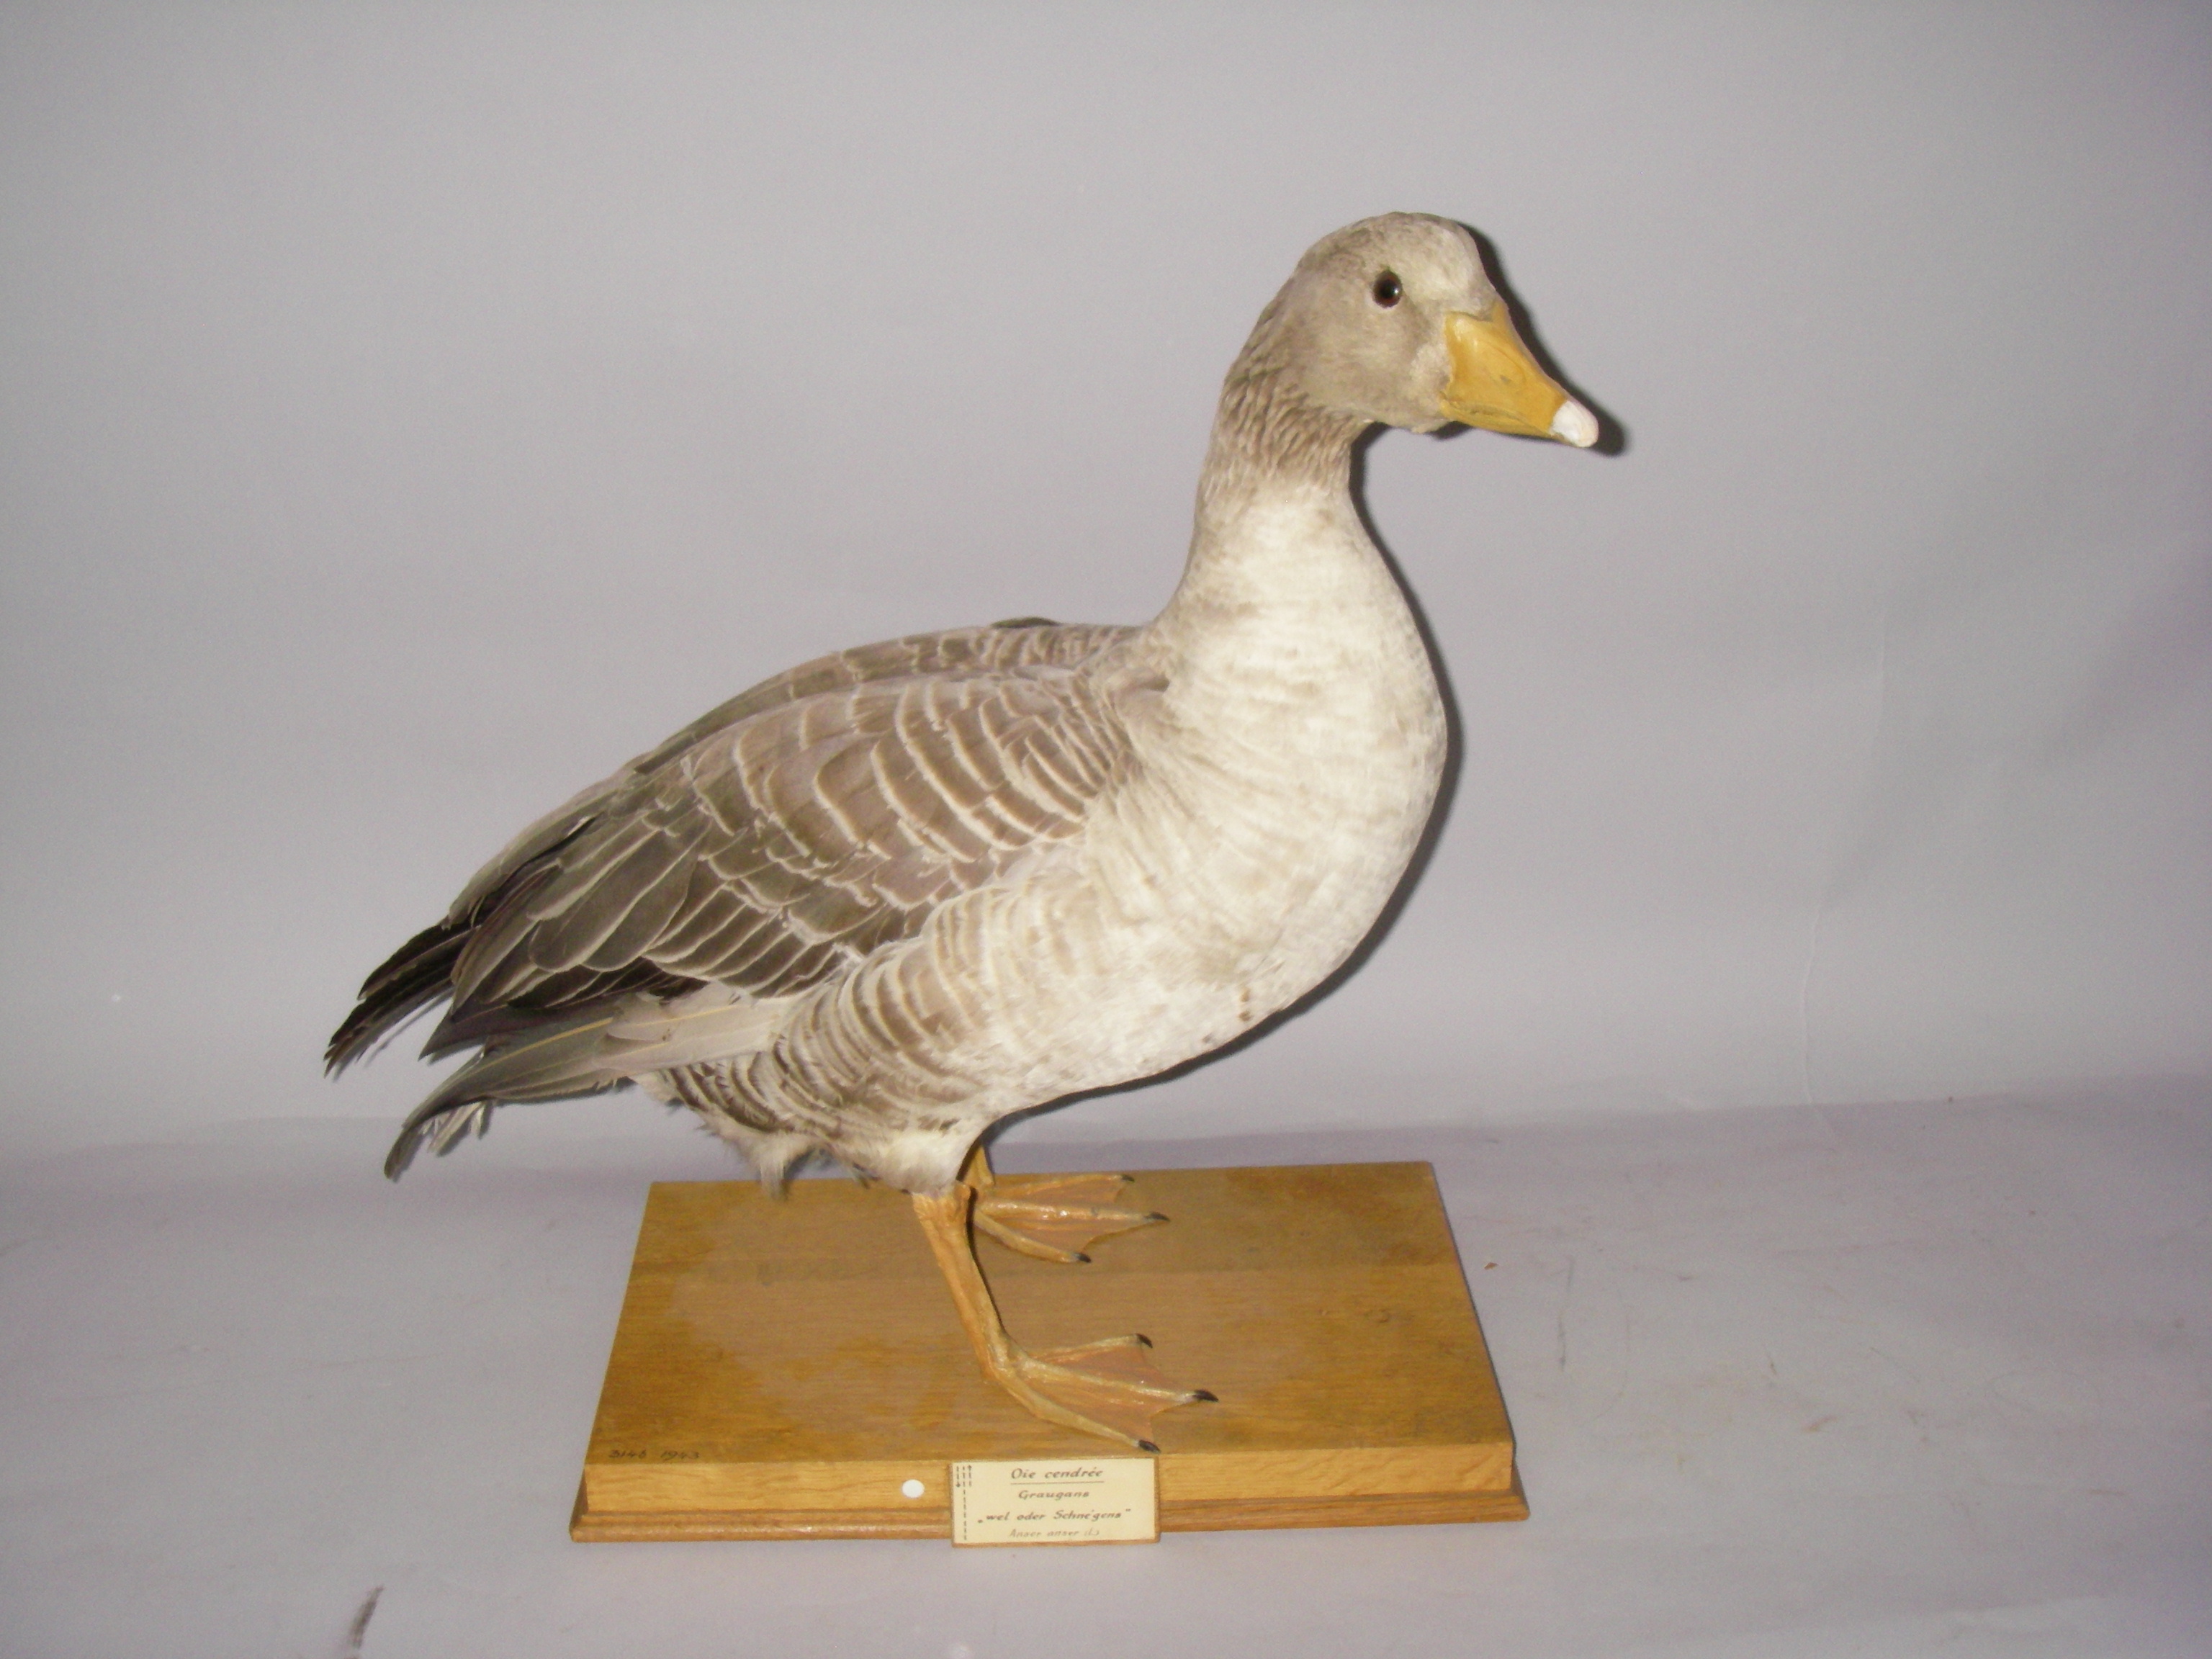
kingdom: Animalia
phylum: Chordata
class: Aves
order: Anseriformes
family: Anatidae
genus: Anser
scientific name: Anser anser
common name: Greylag goose
